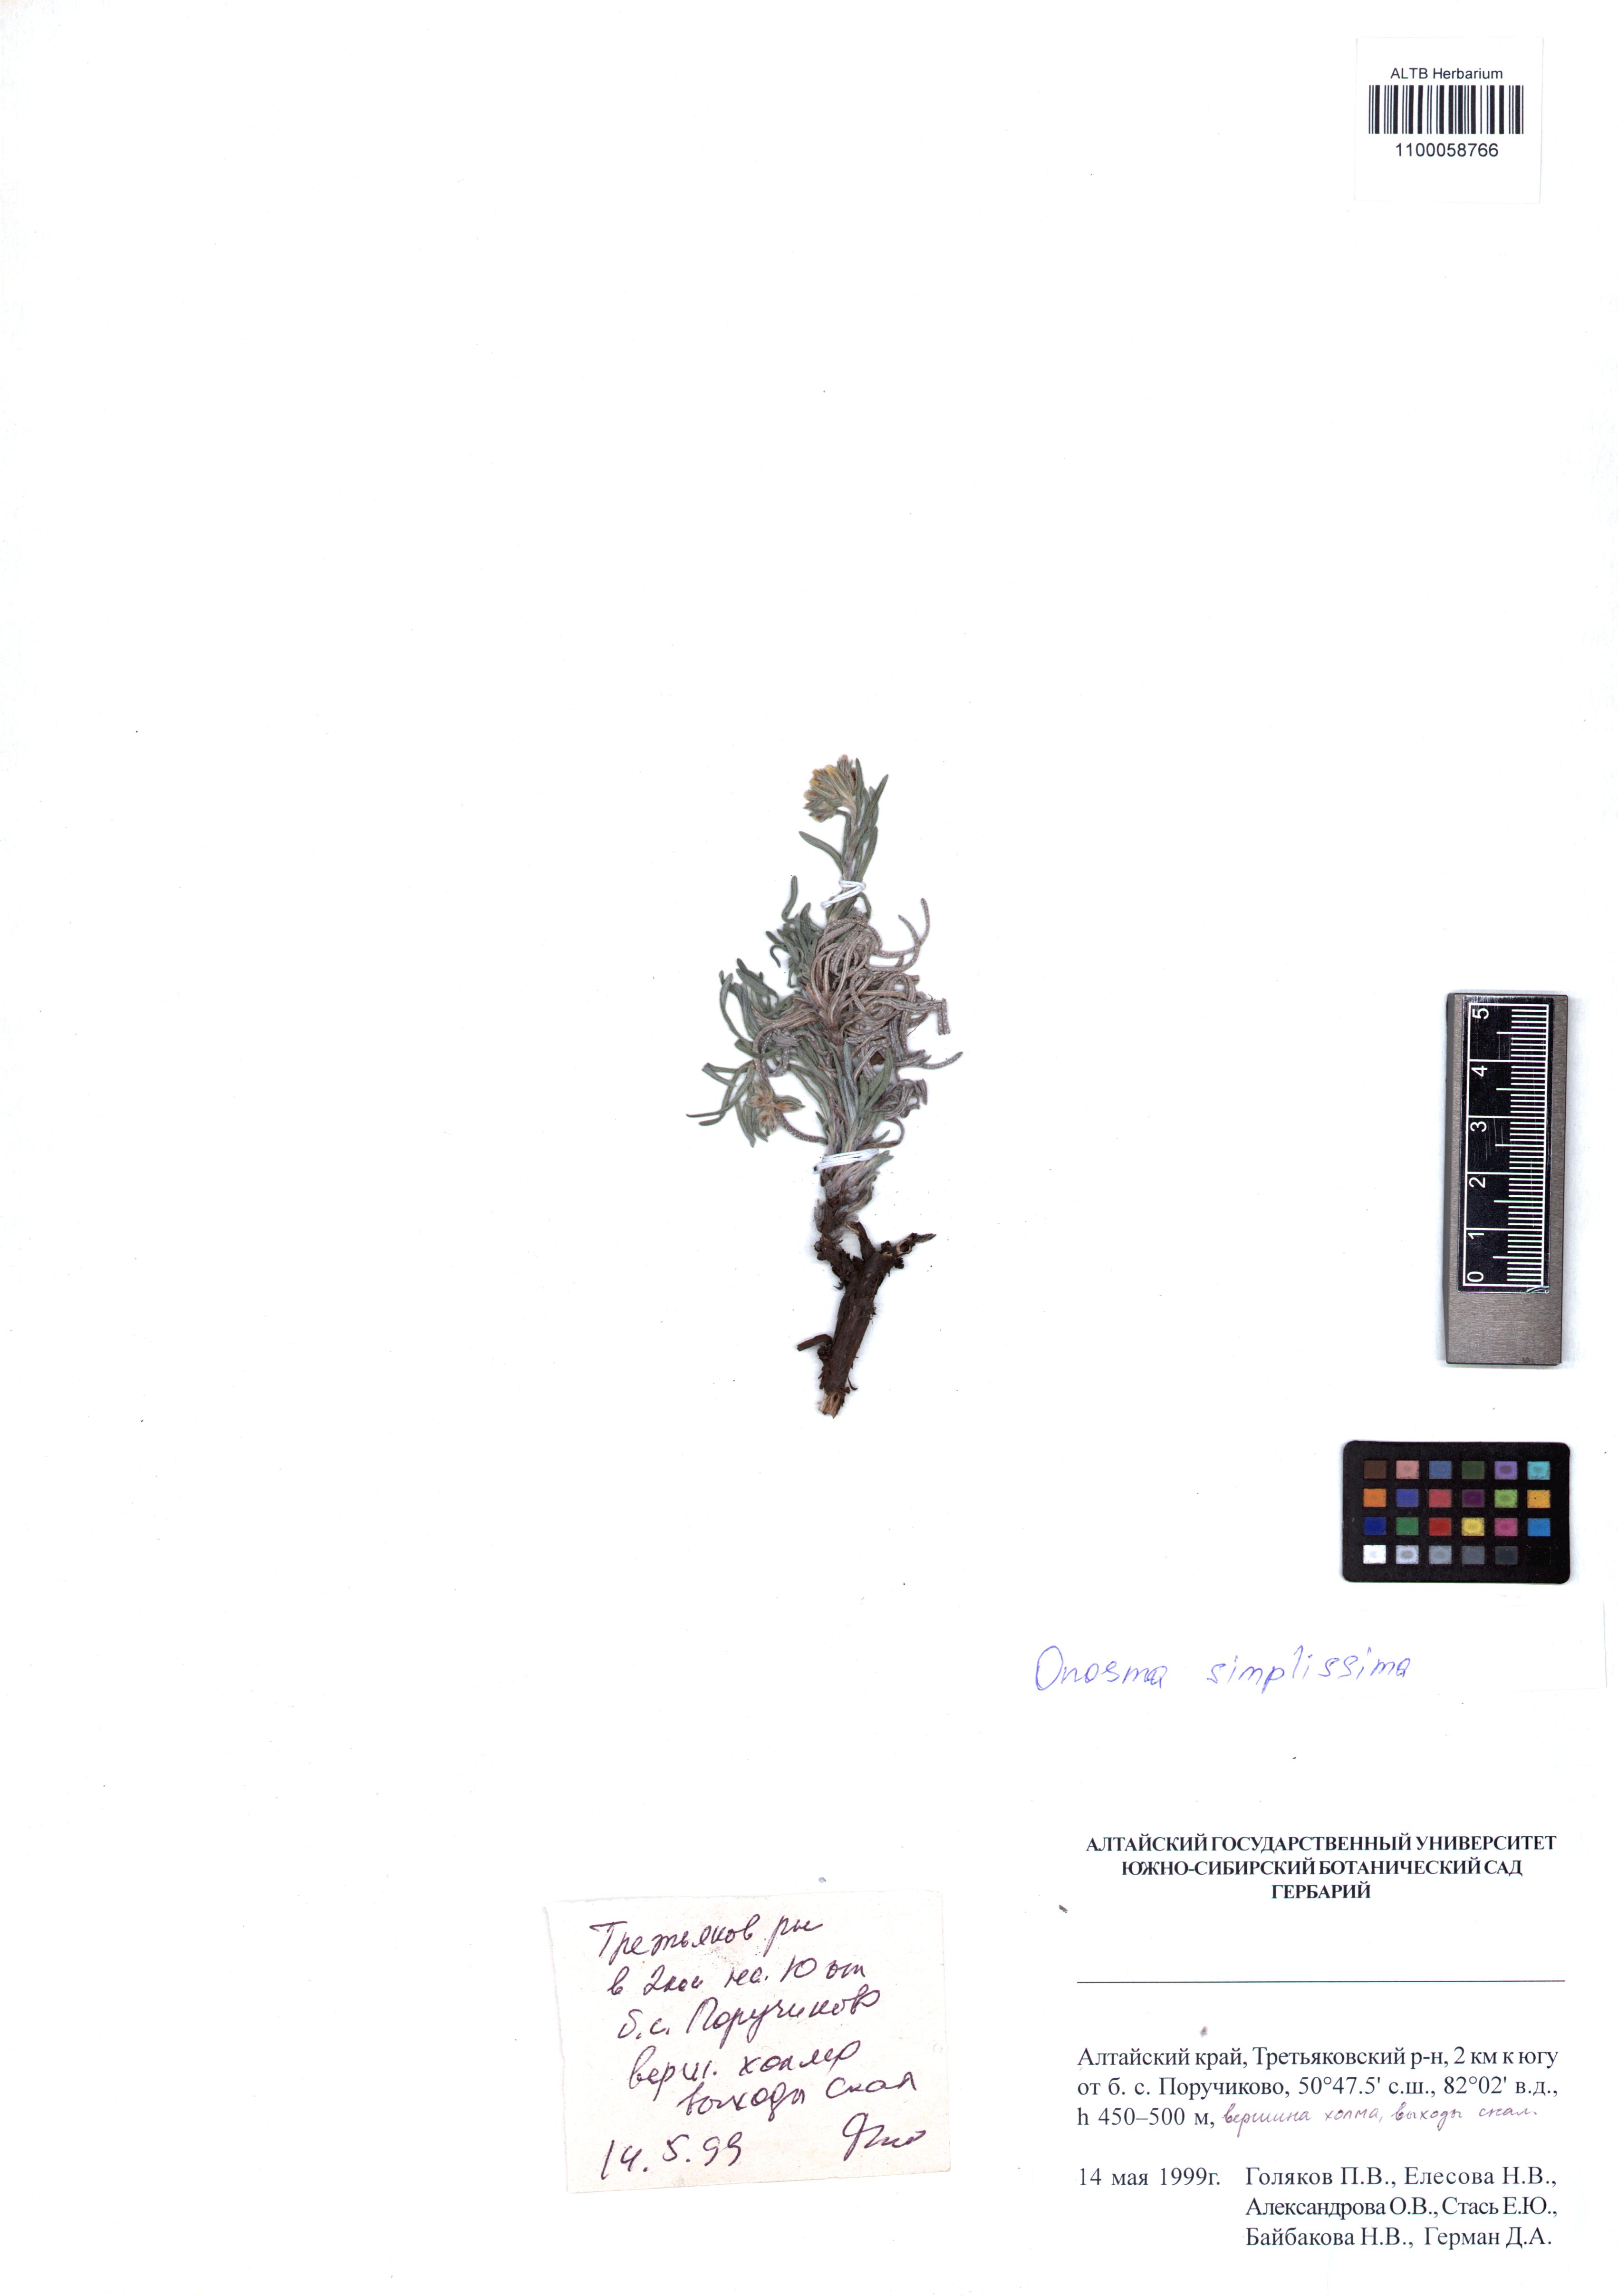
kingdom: Plantae
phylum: Tracheophyta
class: Magnoliopsida
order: Boraginales
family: Boraginaceae
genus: Onosma
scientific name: Onosma simplicissima
